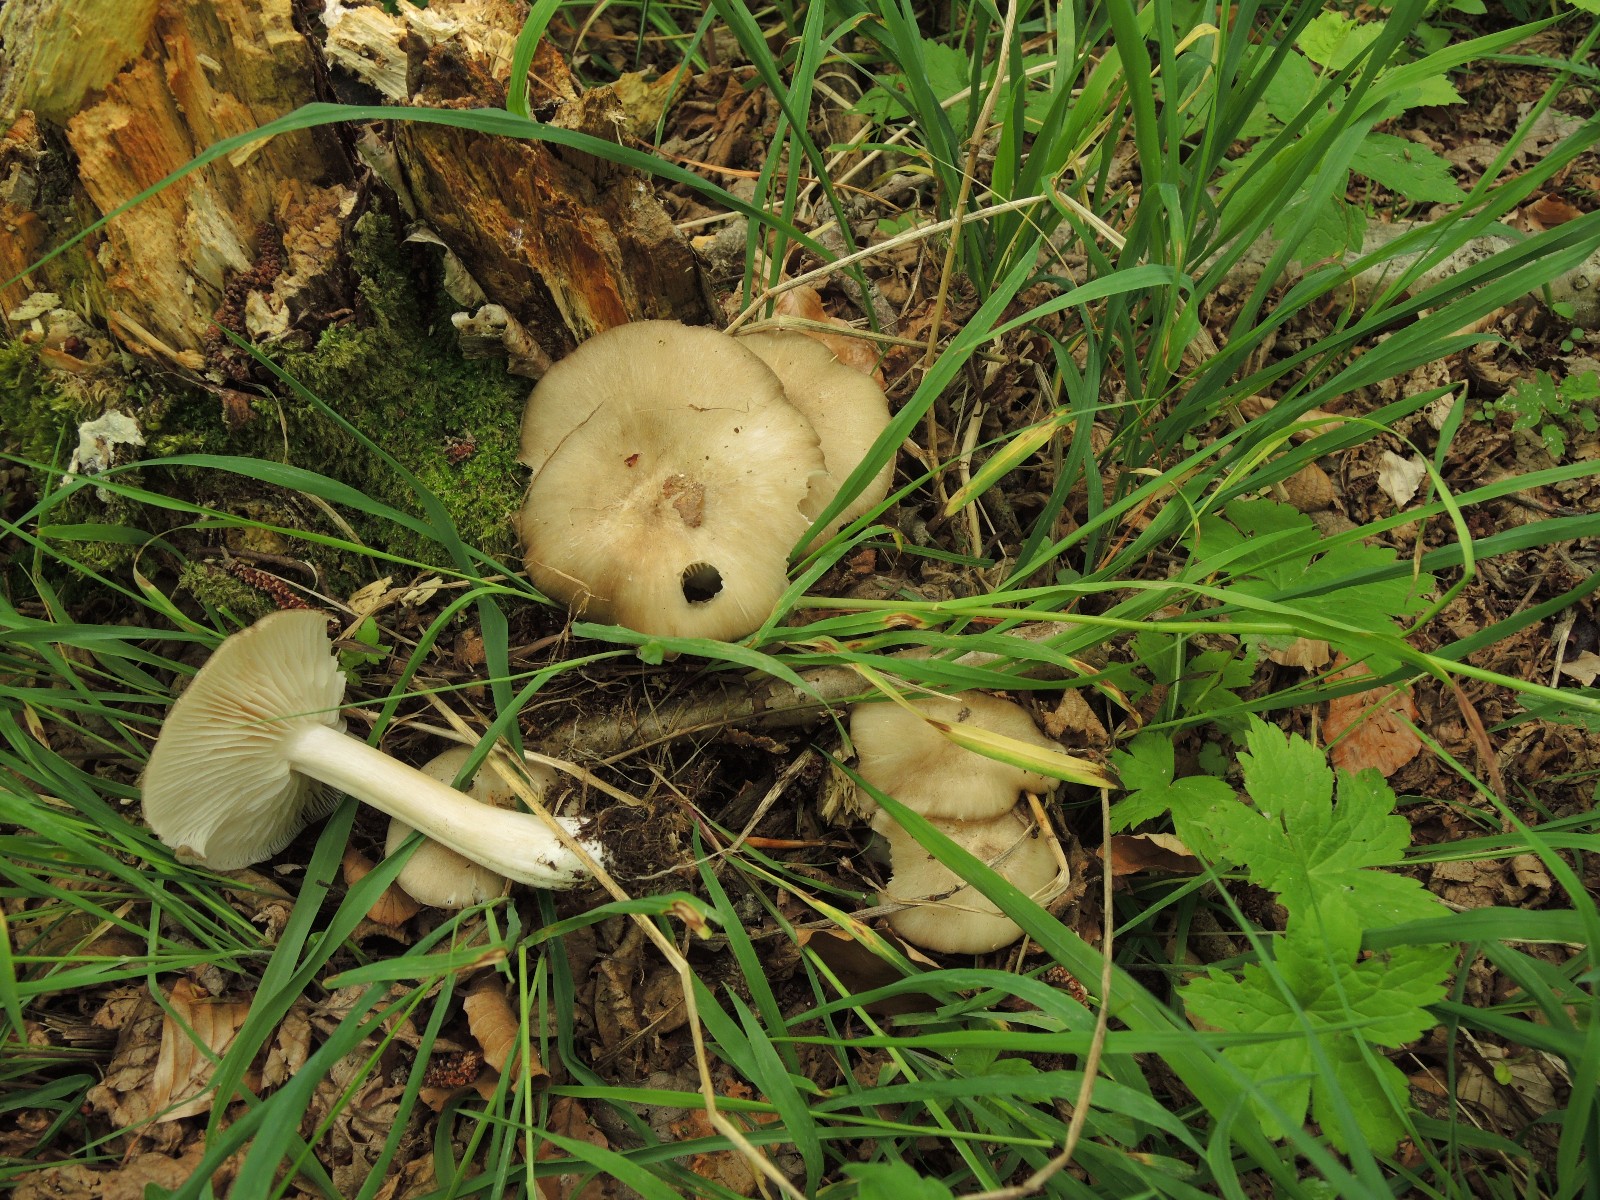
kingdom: Fungi
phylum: Basidiomycota
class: Agaricomycetes
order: Agaricales
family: Tricholomataceae
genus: Megacollybia
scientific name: Megacollybia platyphylla
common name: bredbladet væbnerhat
